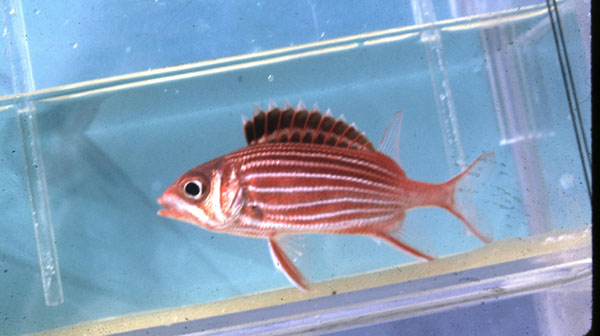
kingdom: Animalia
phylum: Chordata
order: Beryciformes
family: Holocentridae
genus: Sargocentron
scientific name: Sargocentron diadema
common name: Crown squirrelfish
